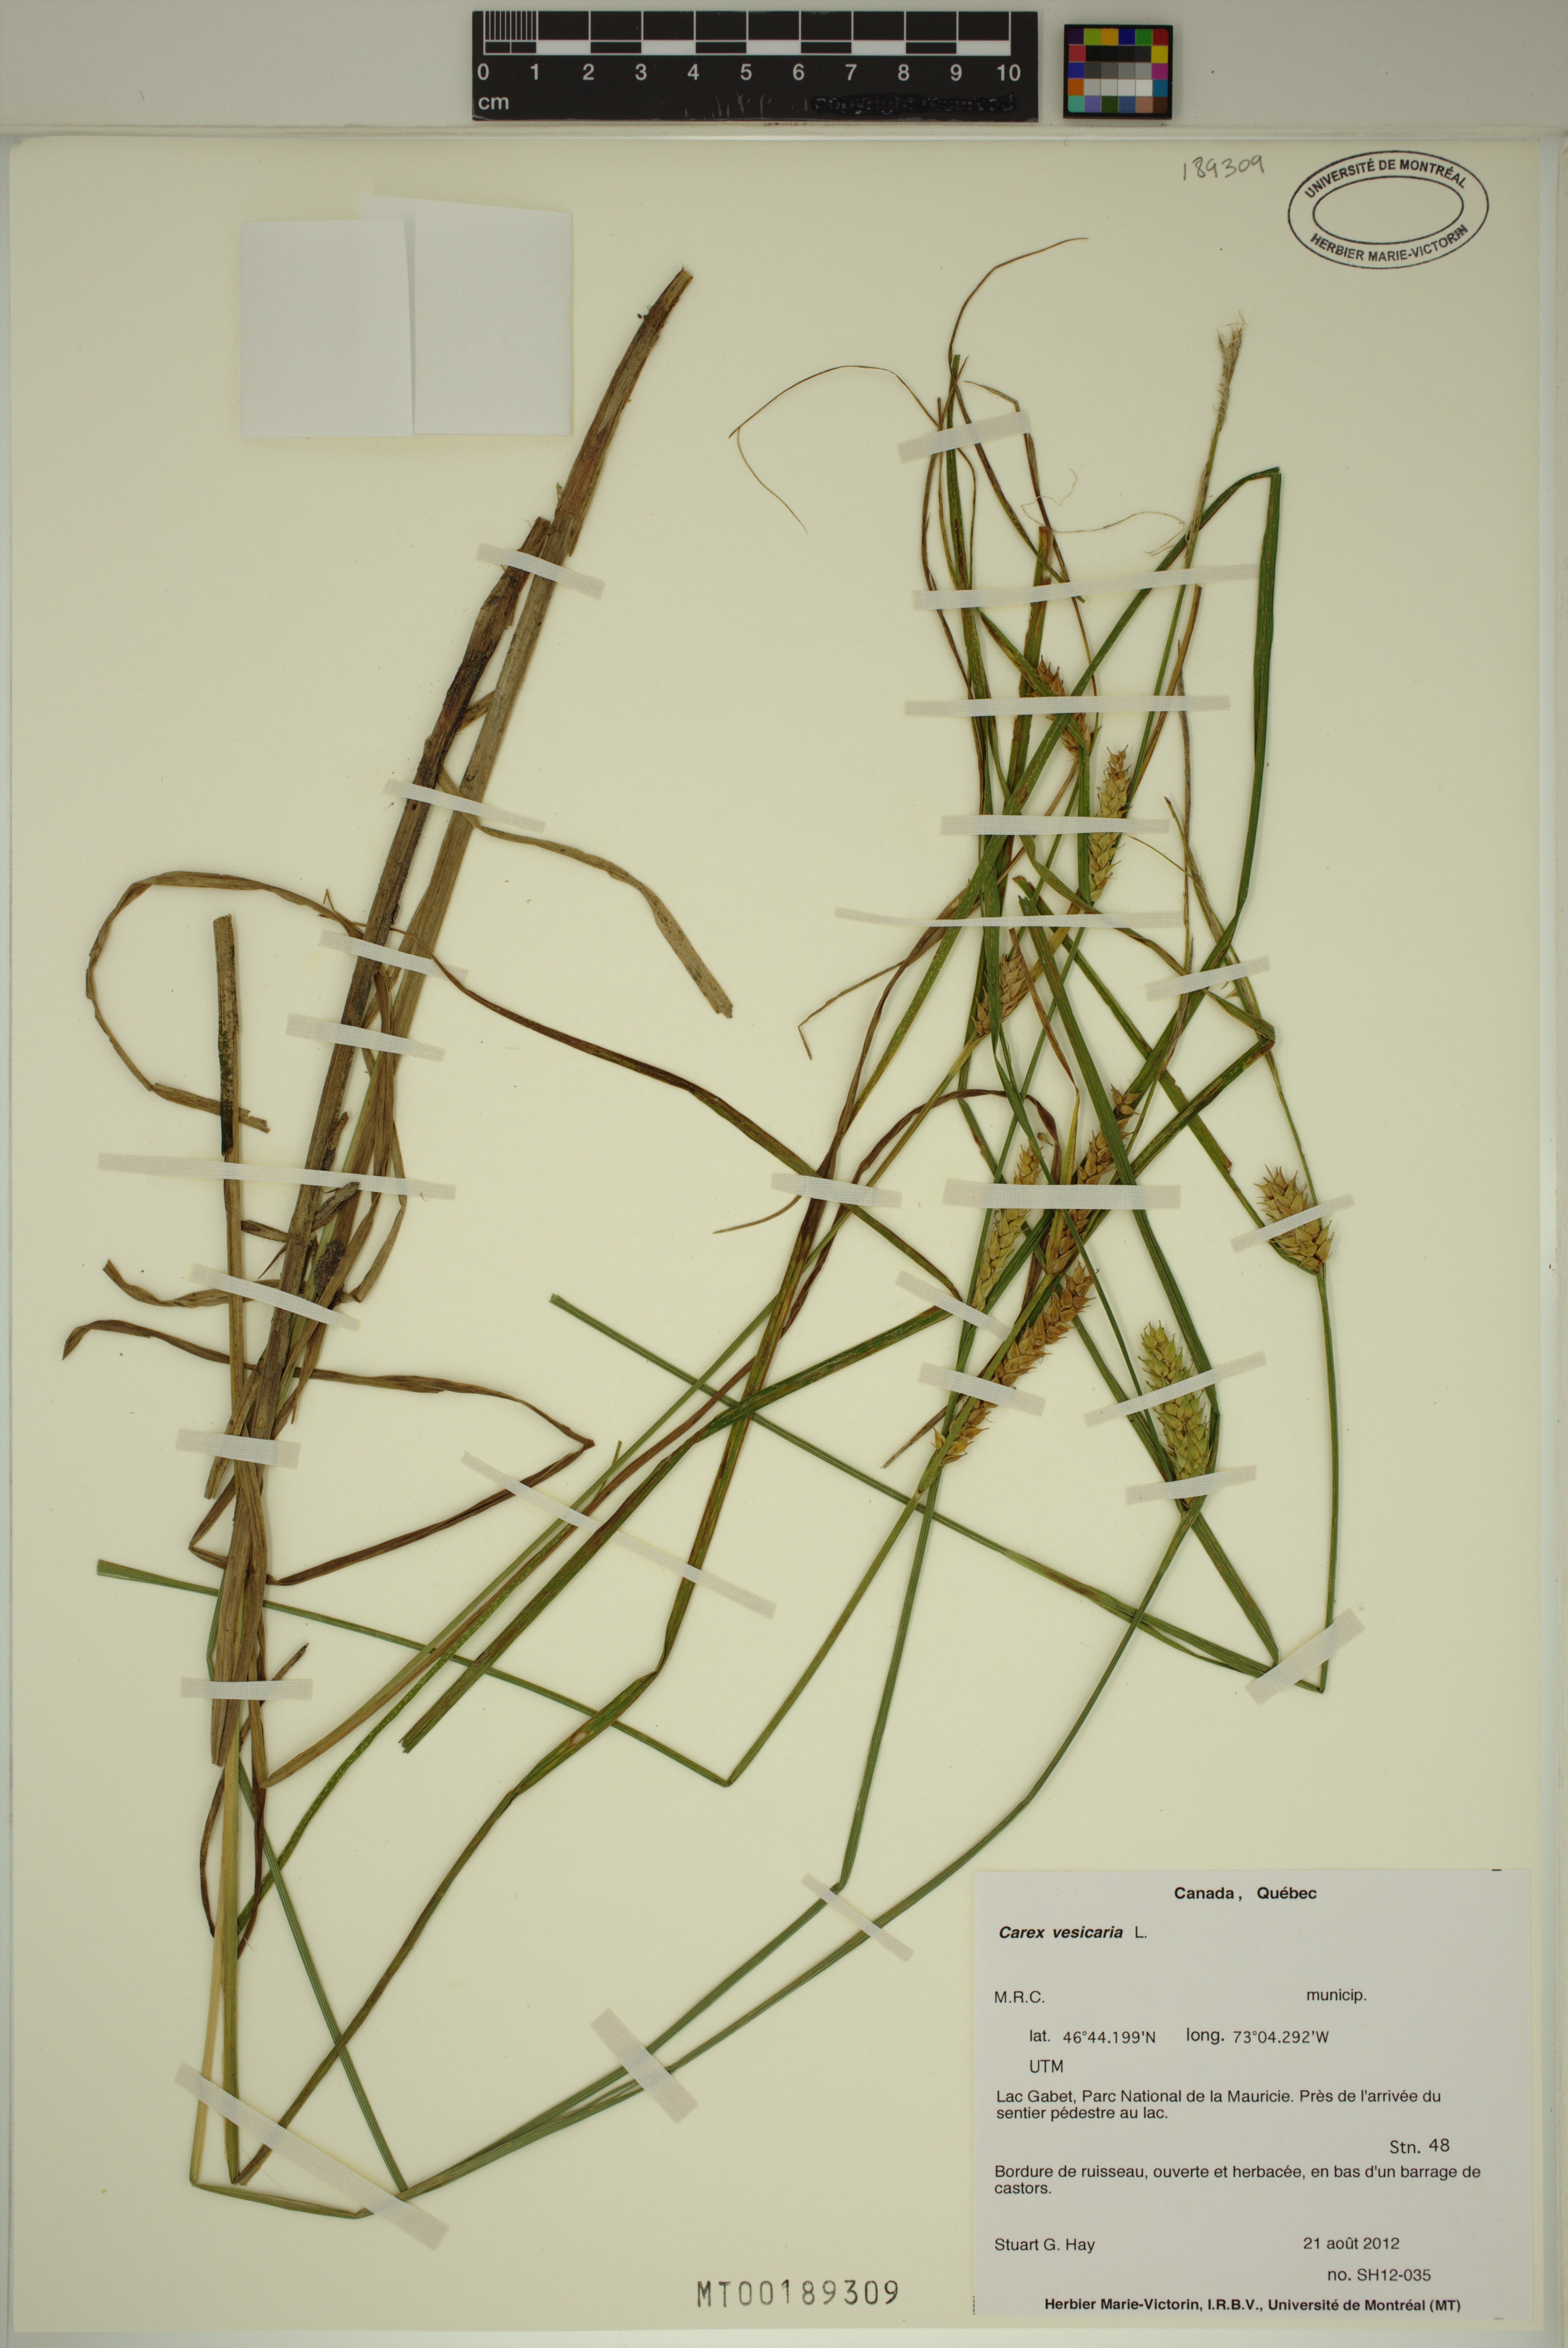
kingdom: Plantae
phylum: Tracheophyta
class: Liliopsida
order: Poales
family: Cyperaceae
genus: Carex
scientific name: Carex vesicaria
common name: Bladder-sedge
